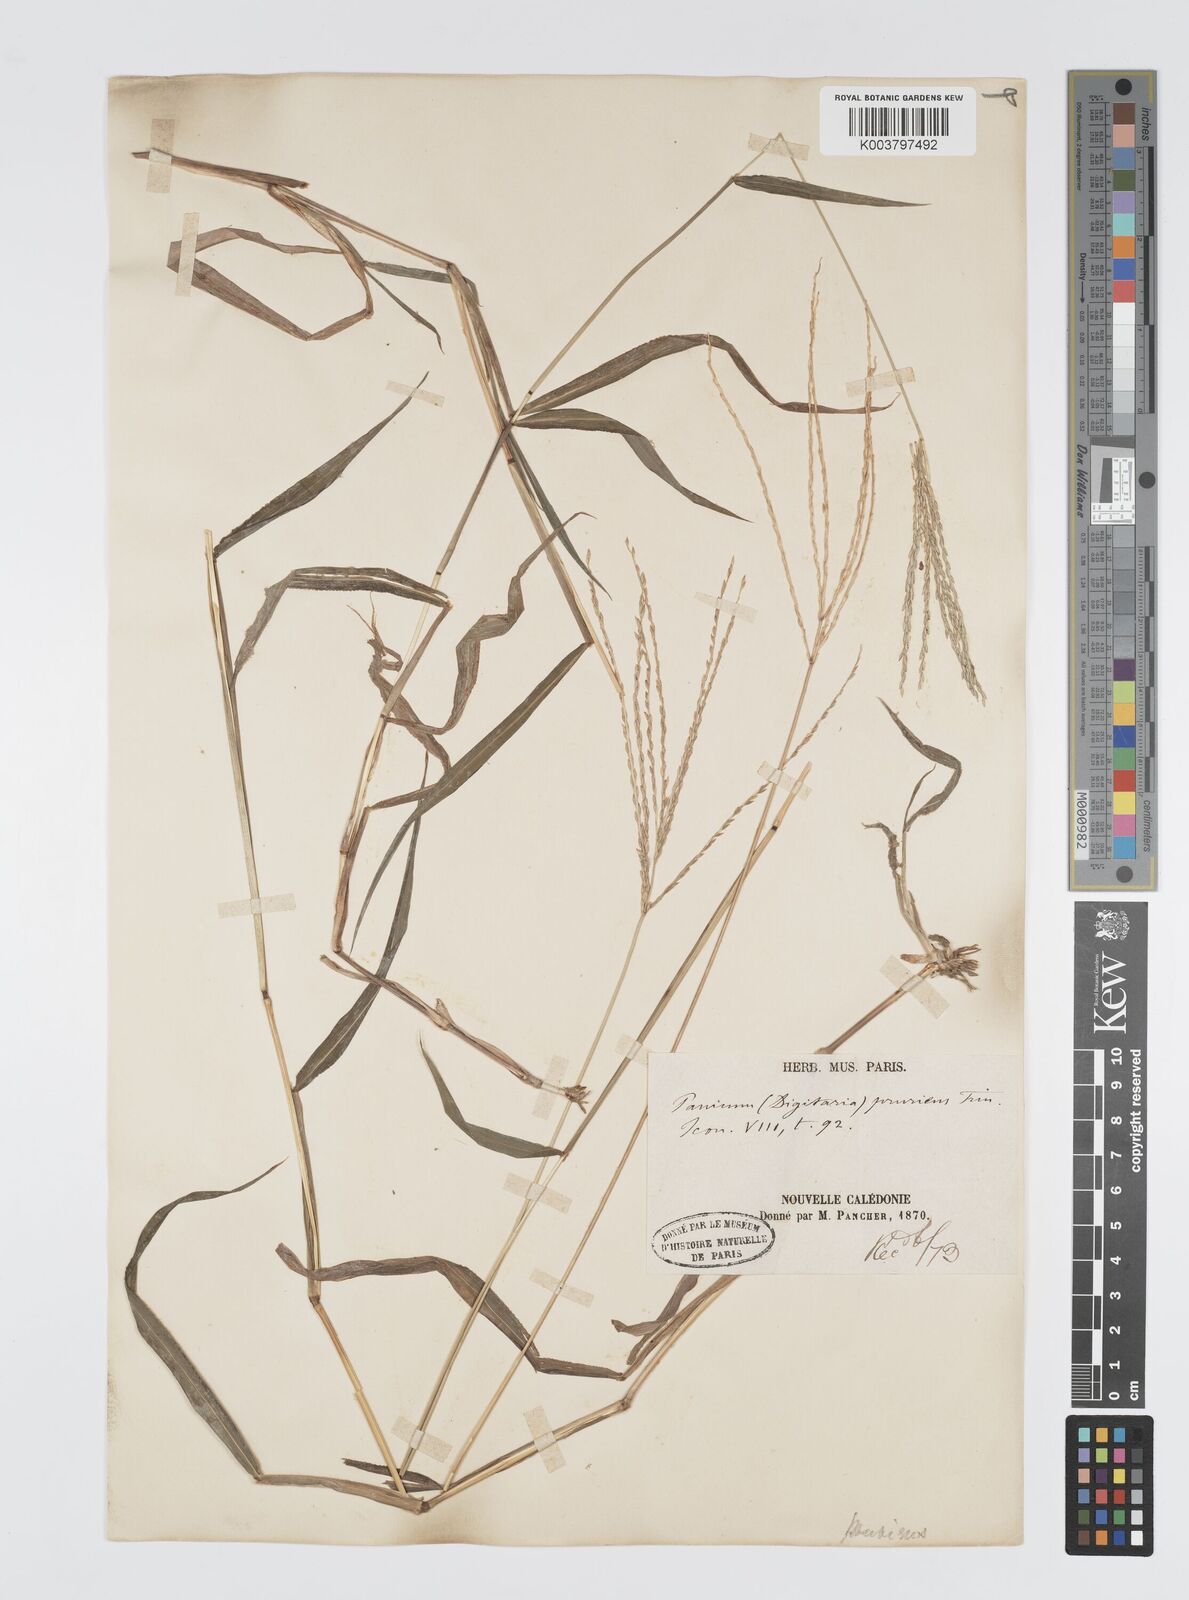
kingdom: Plantae
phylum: Tracheophyta
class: Liliopsida
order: Poales
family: Poaceae
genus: Digitaria
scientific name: Digitaria setigera
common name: East indian crabgrass
